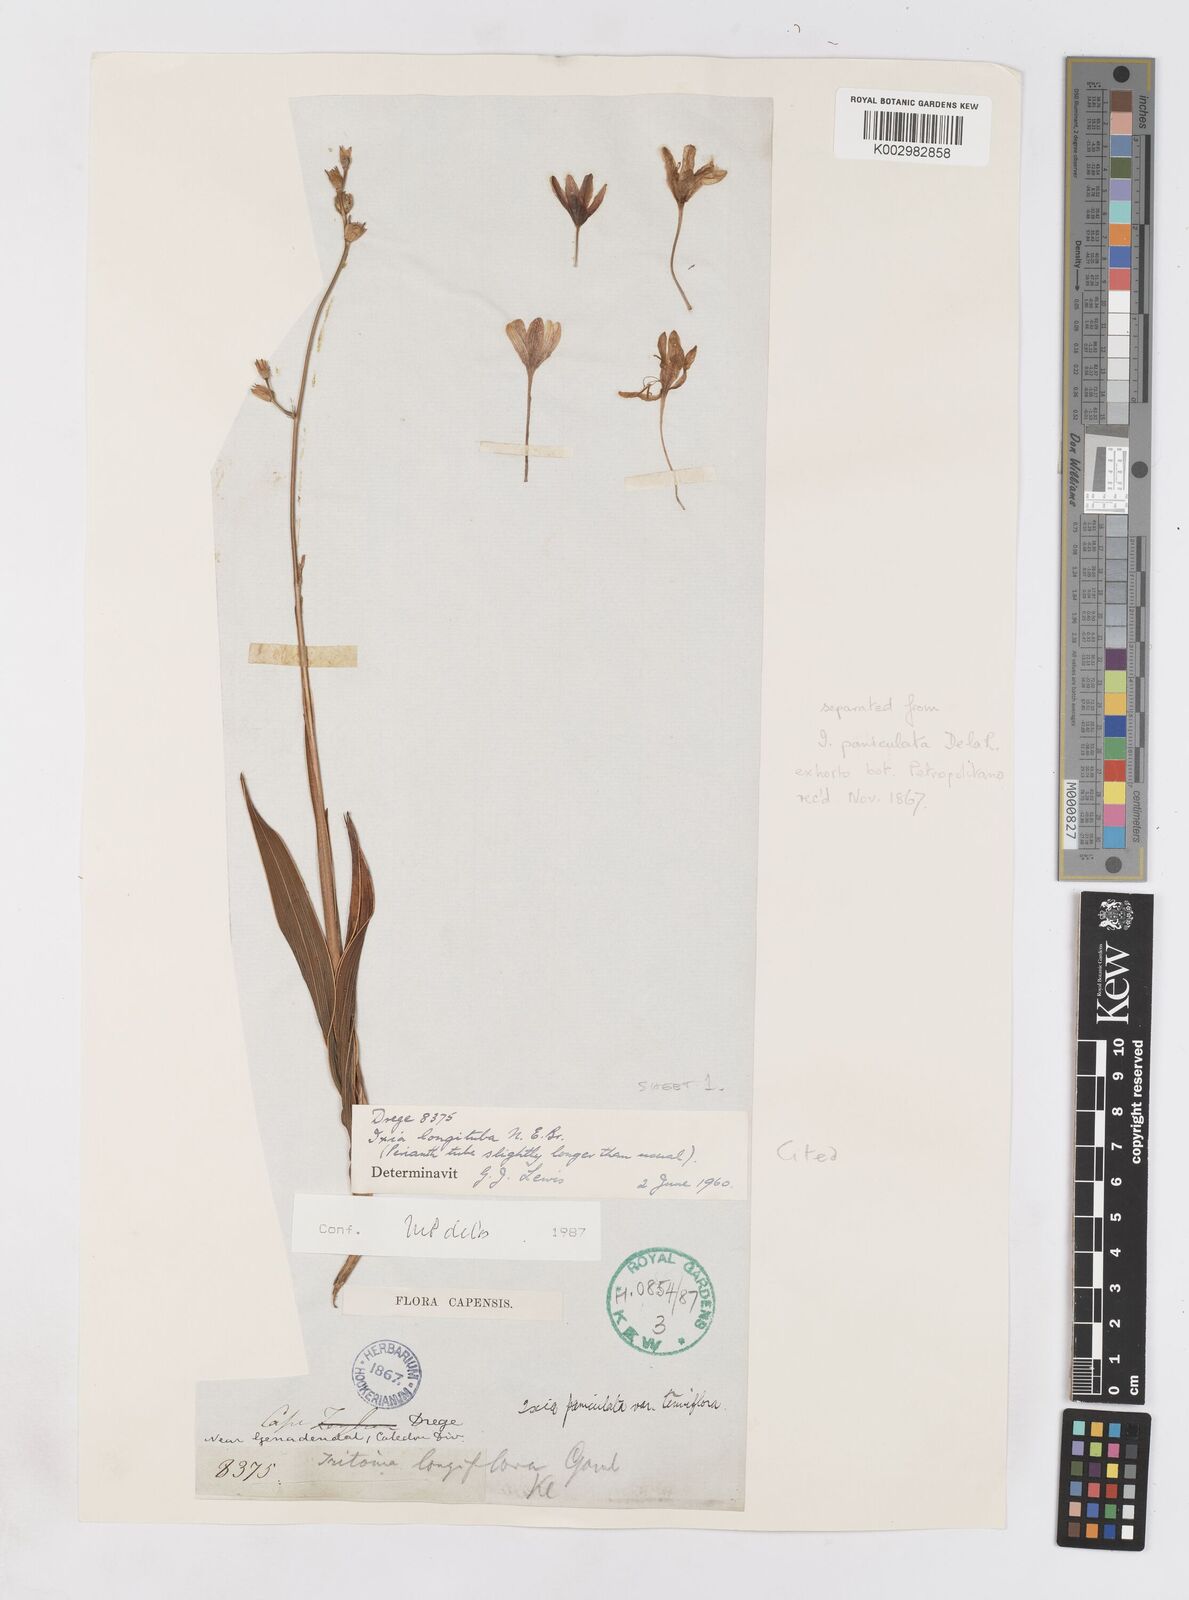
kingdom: Plantae
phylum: Tracheophyta
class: Liliopsida
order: Asparagales
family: Iridaceae
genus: Ixia
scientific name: Ixia longituba
